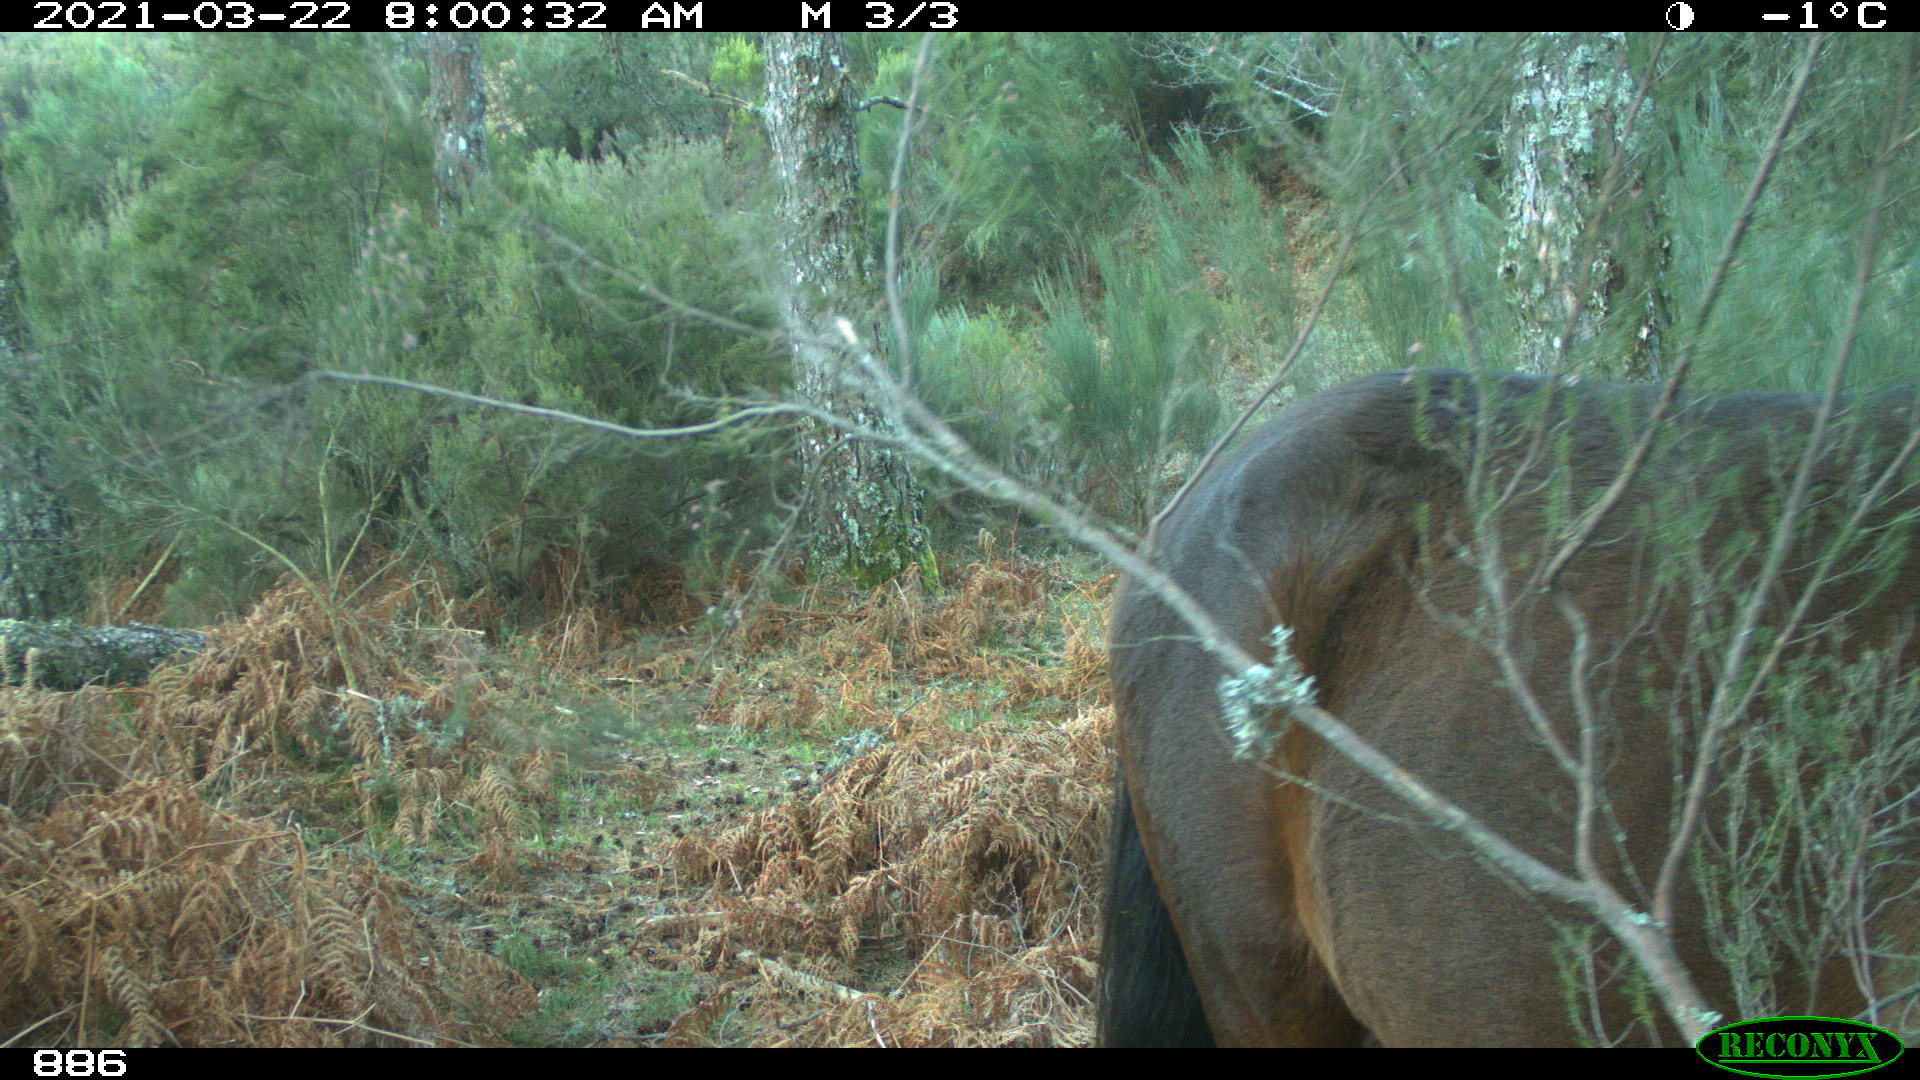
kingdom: Animalia
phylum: Chordata
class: Mammalia
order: Perissodactyla
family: Equidae
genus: Equus
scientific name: Equus caballus
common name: Horse
